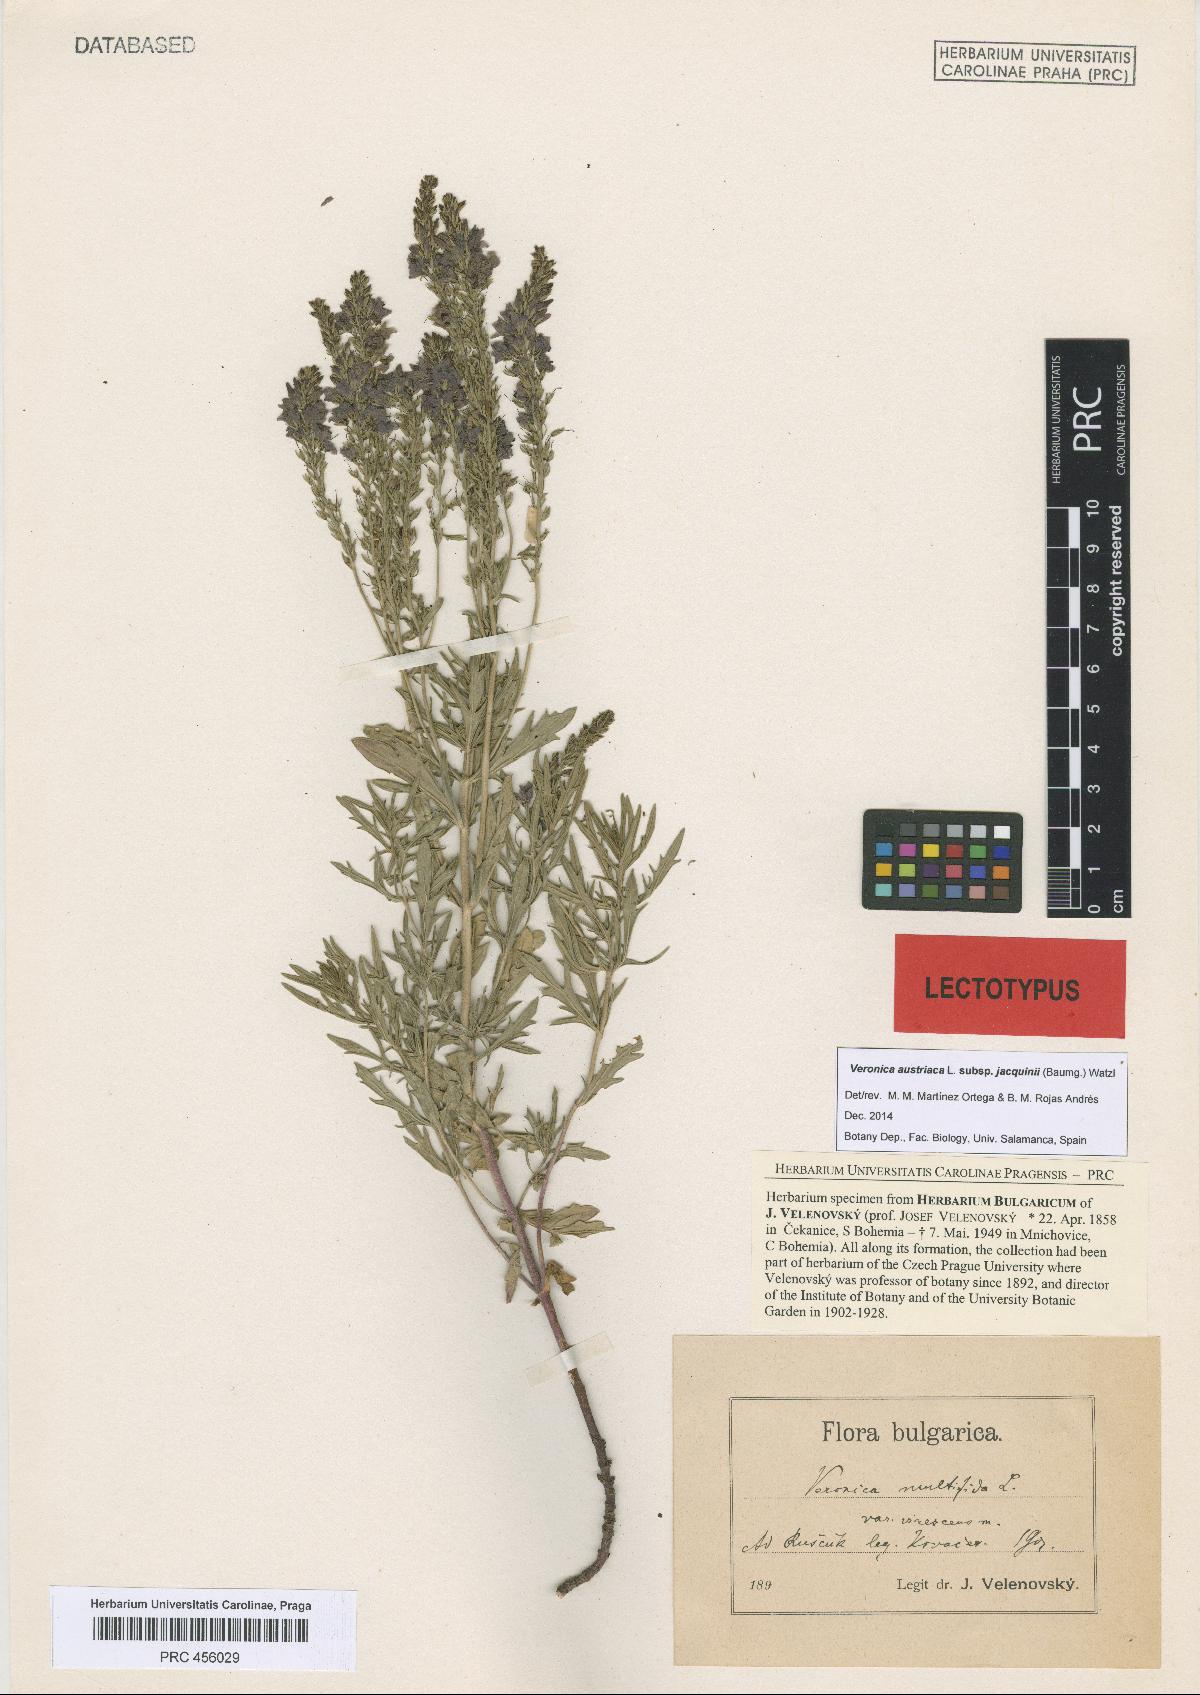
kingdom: Plantae
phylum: Tracheophyta
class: Magnoliopsida
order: Lamiales
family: Plantaginaceae
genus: Veronica
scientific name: Veronica multifida
